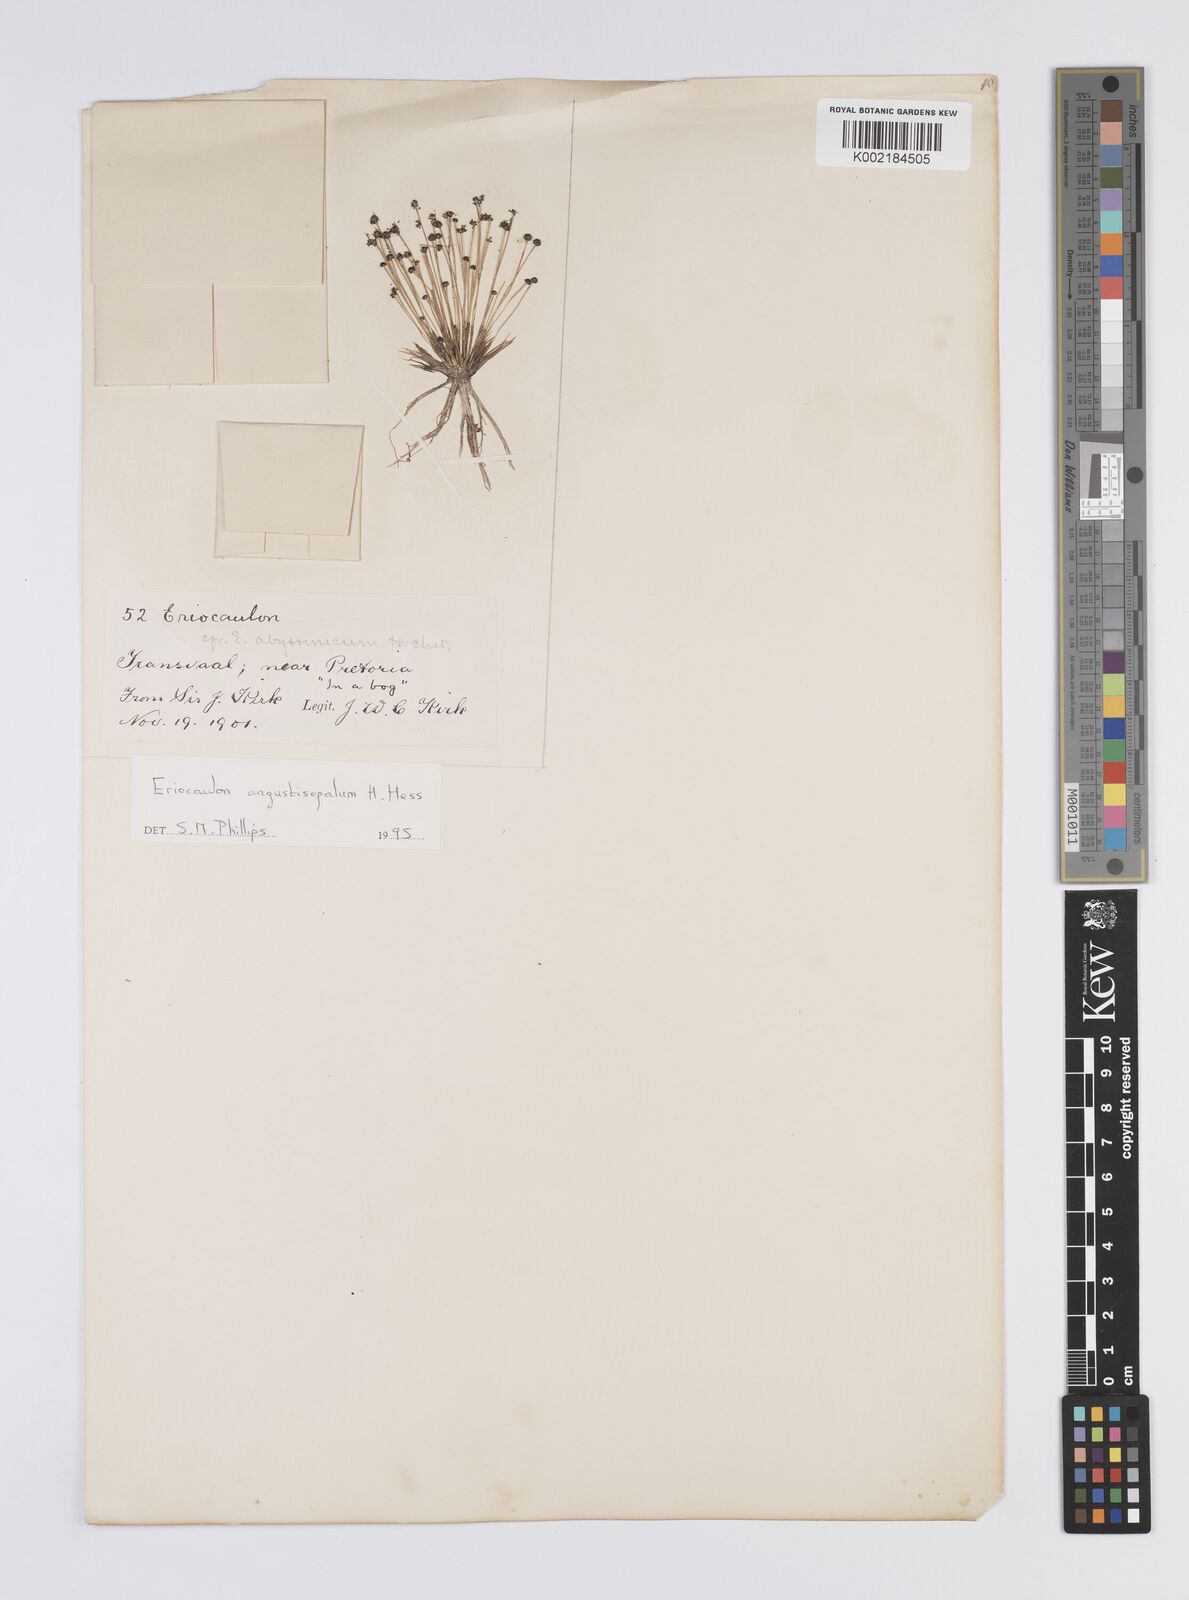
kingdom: Plantae
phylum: Tracheophyta
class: Liliopsida
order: Poales
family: Eriocaulaceae
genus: Eriocaulon
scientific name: Eriocaulon mutatum
